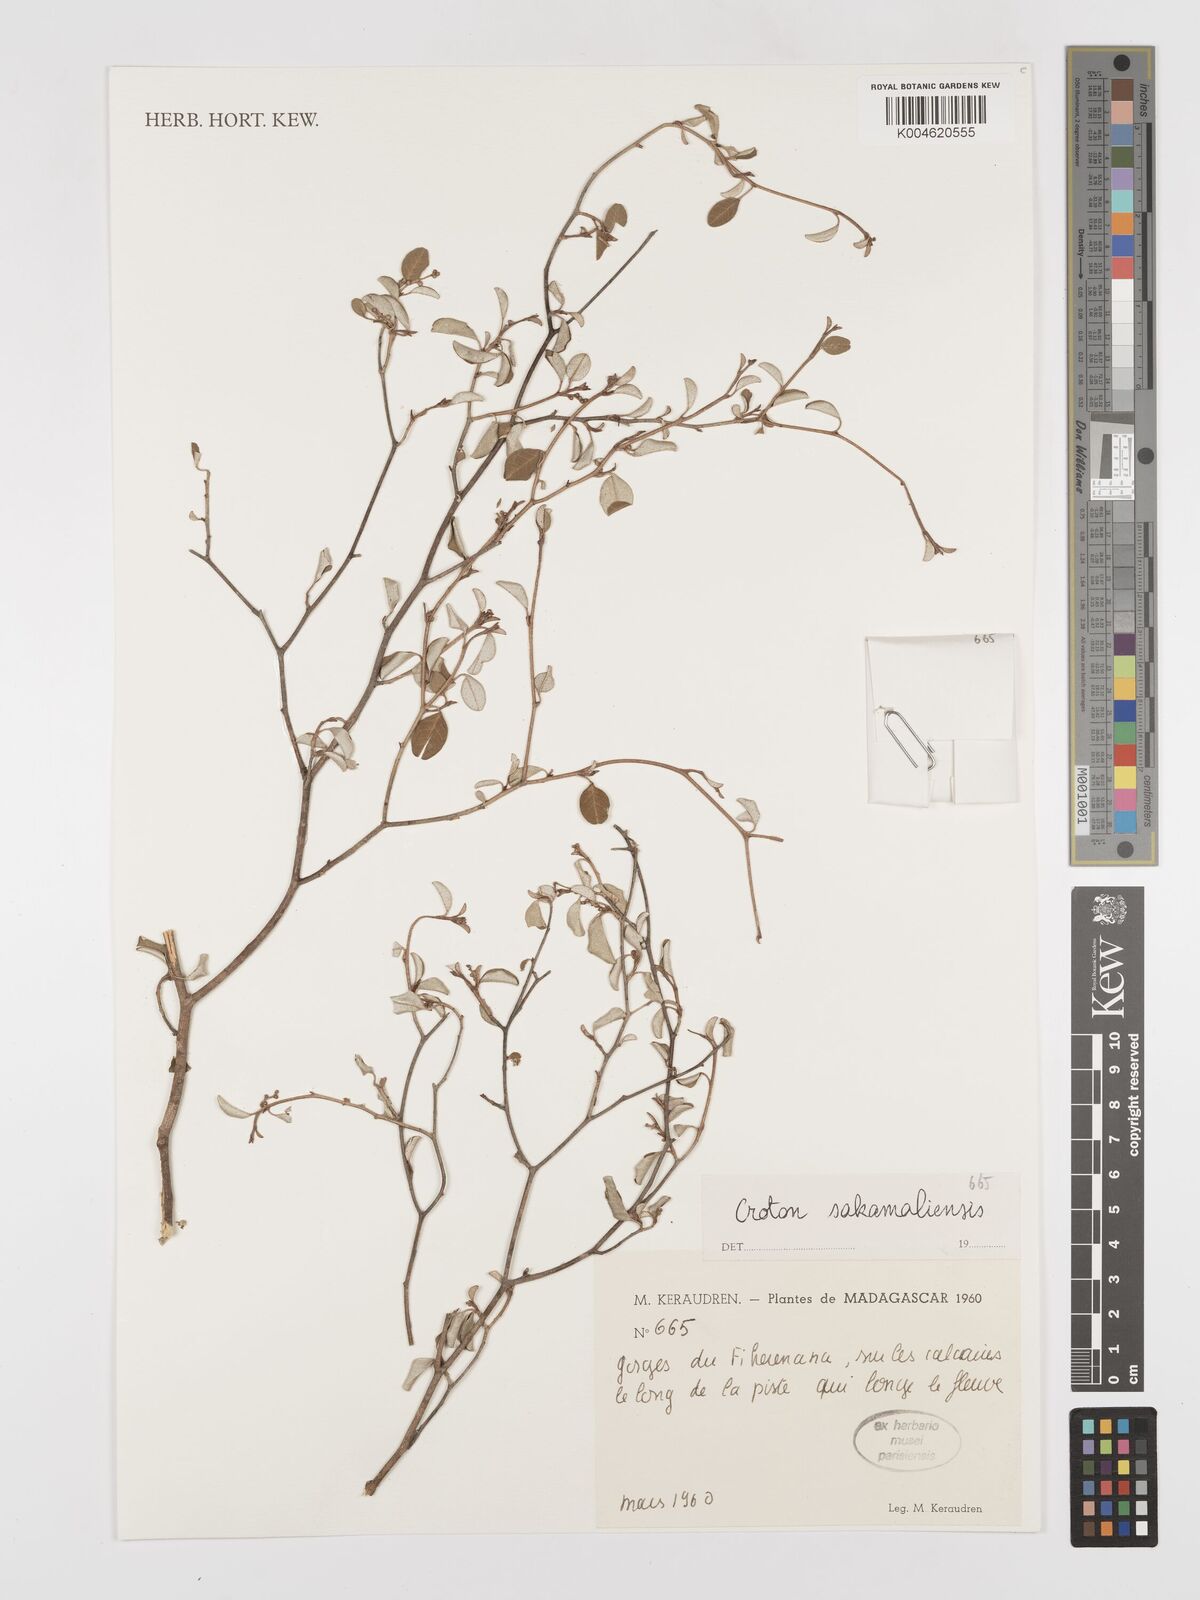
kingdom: Plantae
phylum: Tracheophyta
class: Magnoliopsida
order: Malpighiales
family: Euphorbiaceae
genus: Croton
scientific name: Croton sakamaliensis
